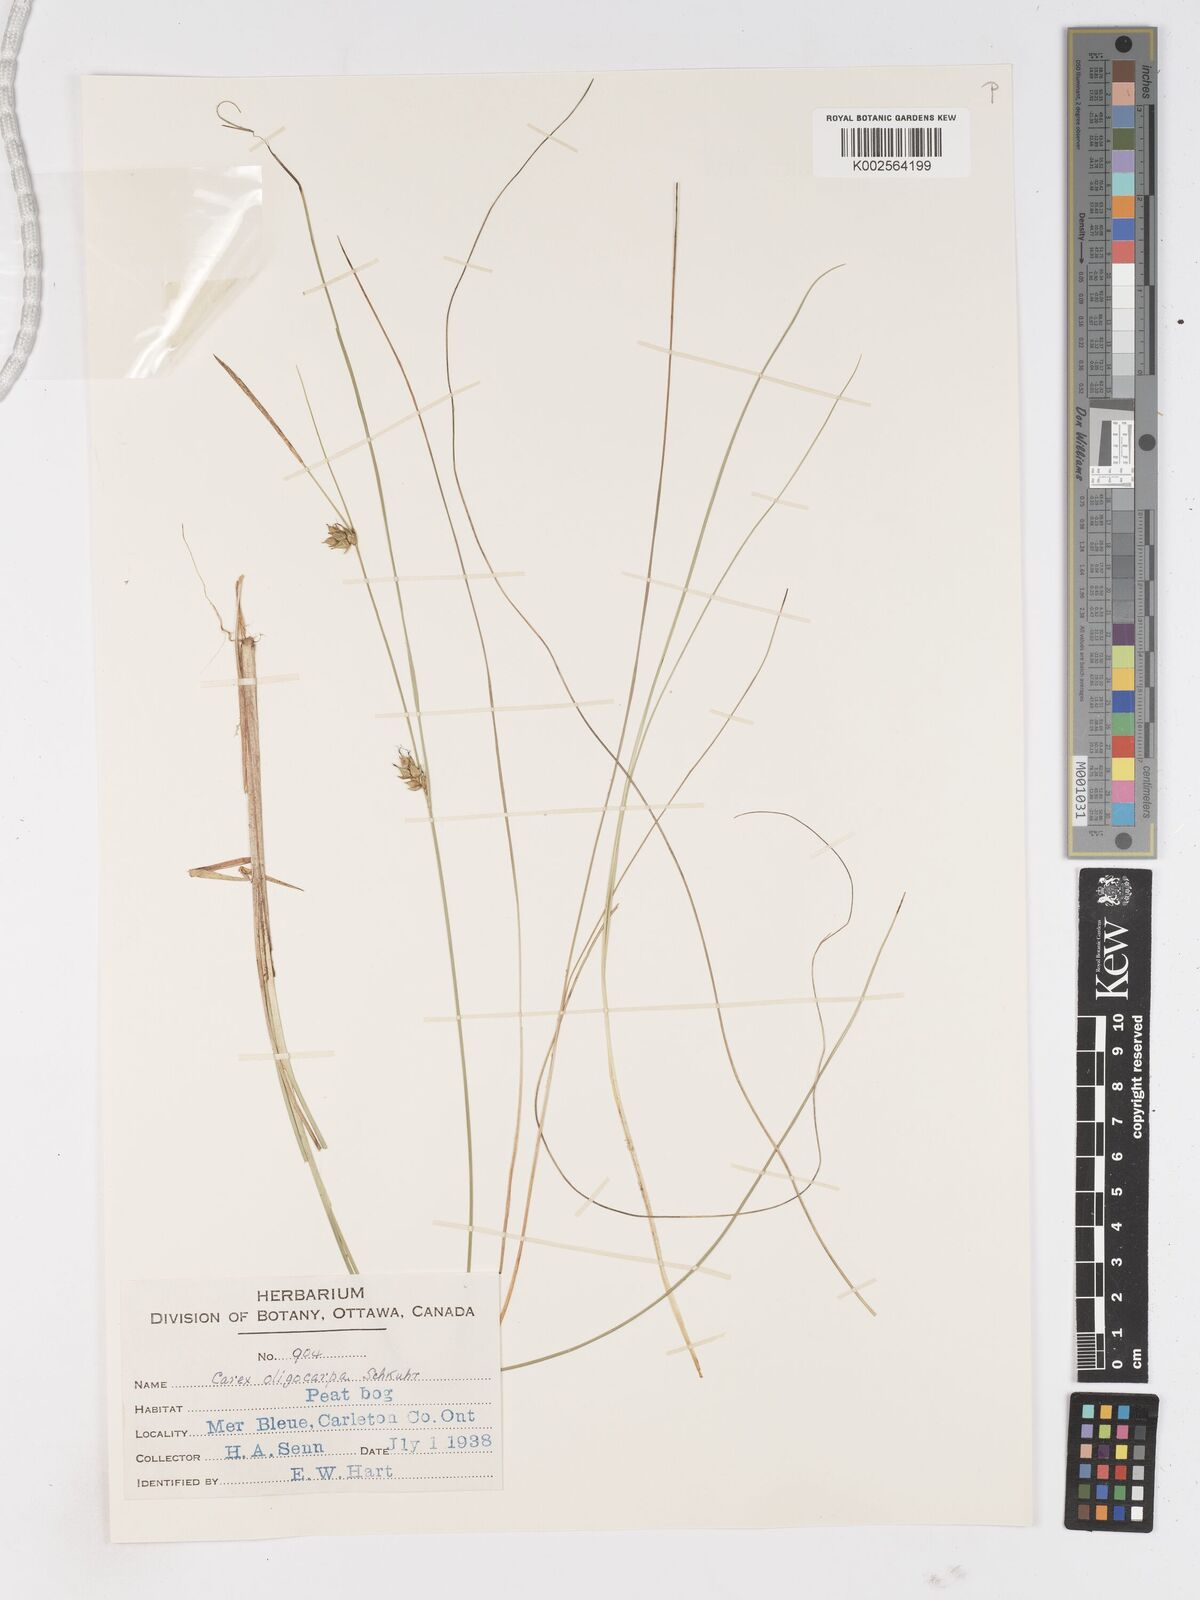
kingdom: Plantae
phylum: Tracheophyta
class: Liliopsida
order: Poales
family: Cyperaceae
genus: Carex
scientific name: Carex oligosperma
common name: Few-seed sedge
